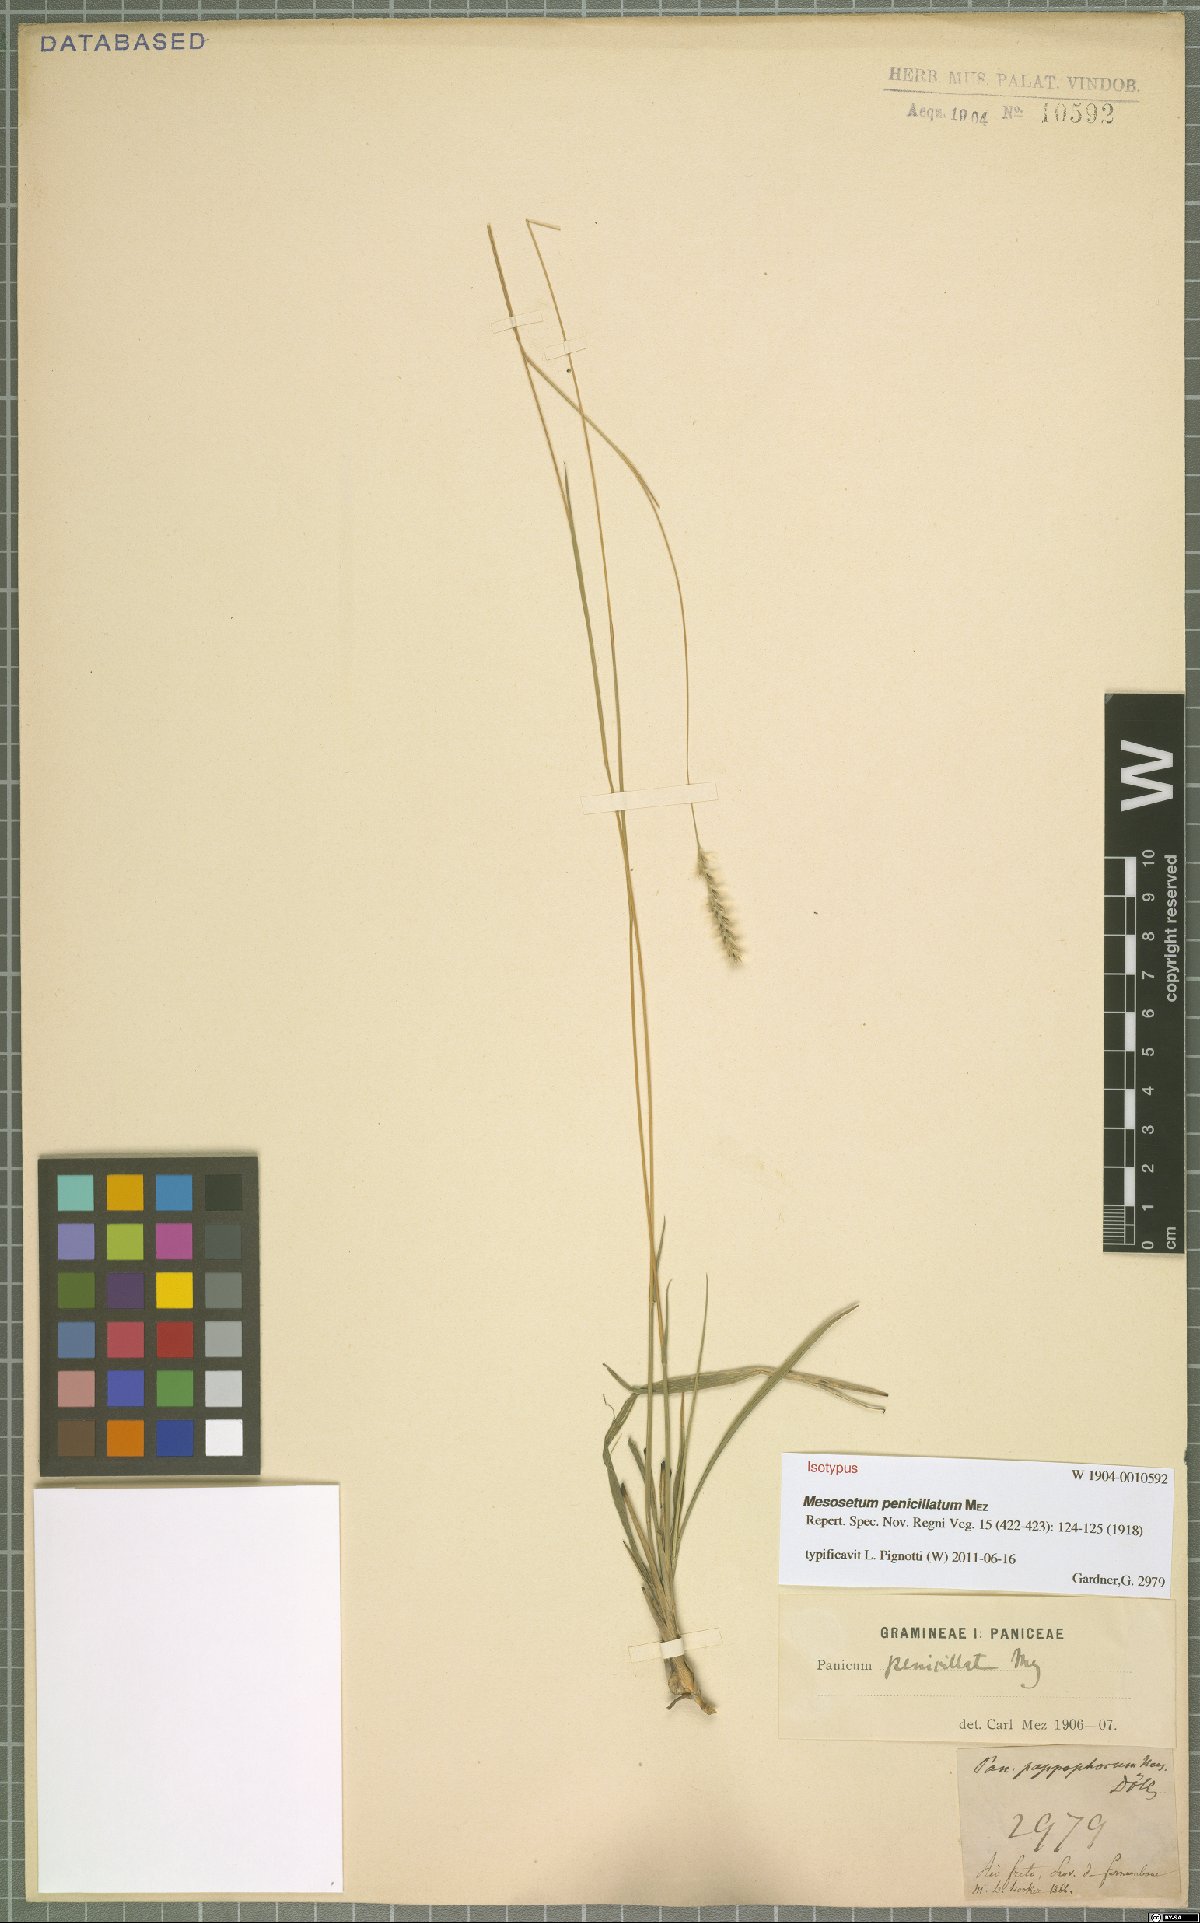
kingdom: Plantae
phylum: Tracheophyta
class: Liliopsida
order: Poales
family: Poaceae
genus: Mesosetum
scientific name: Mesosetum penicillatum
